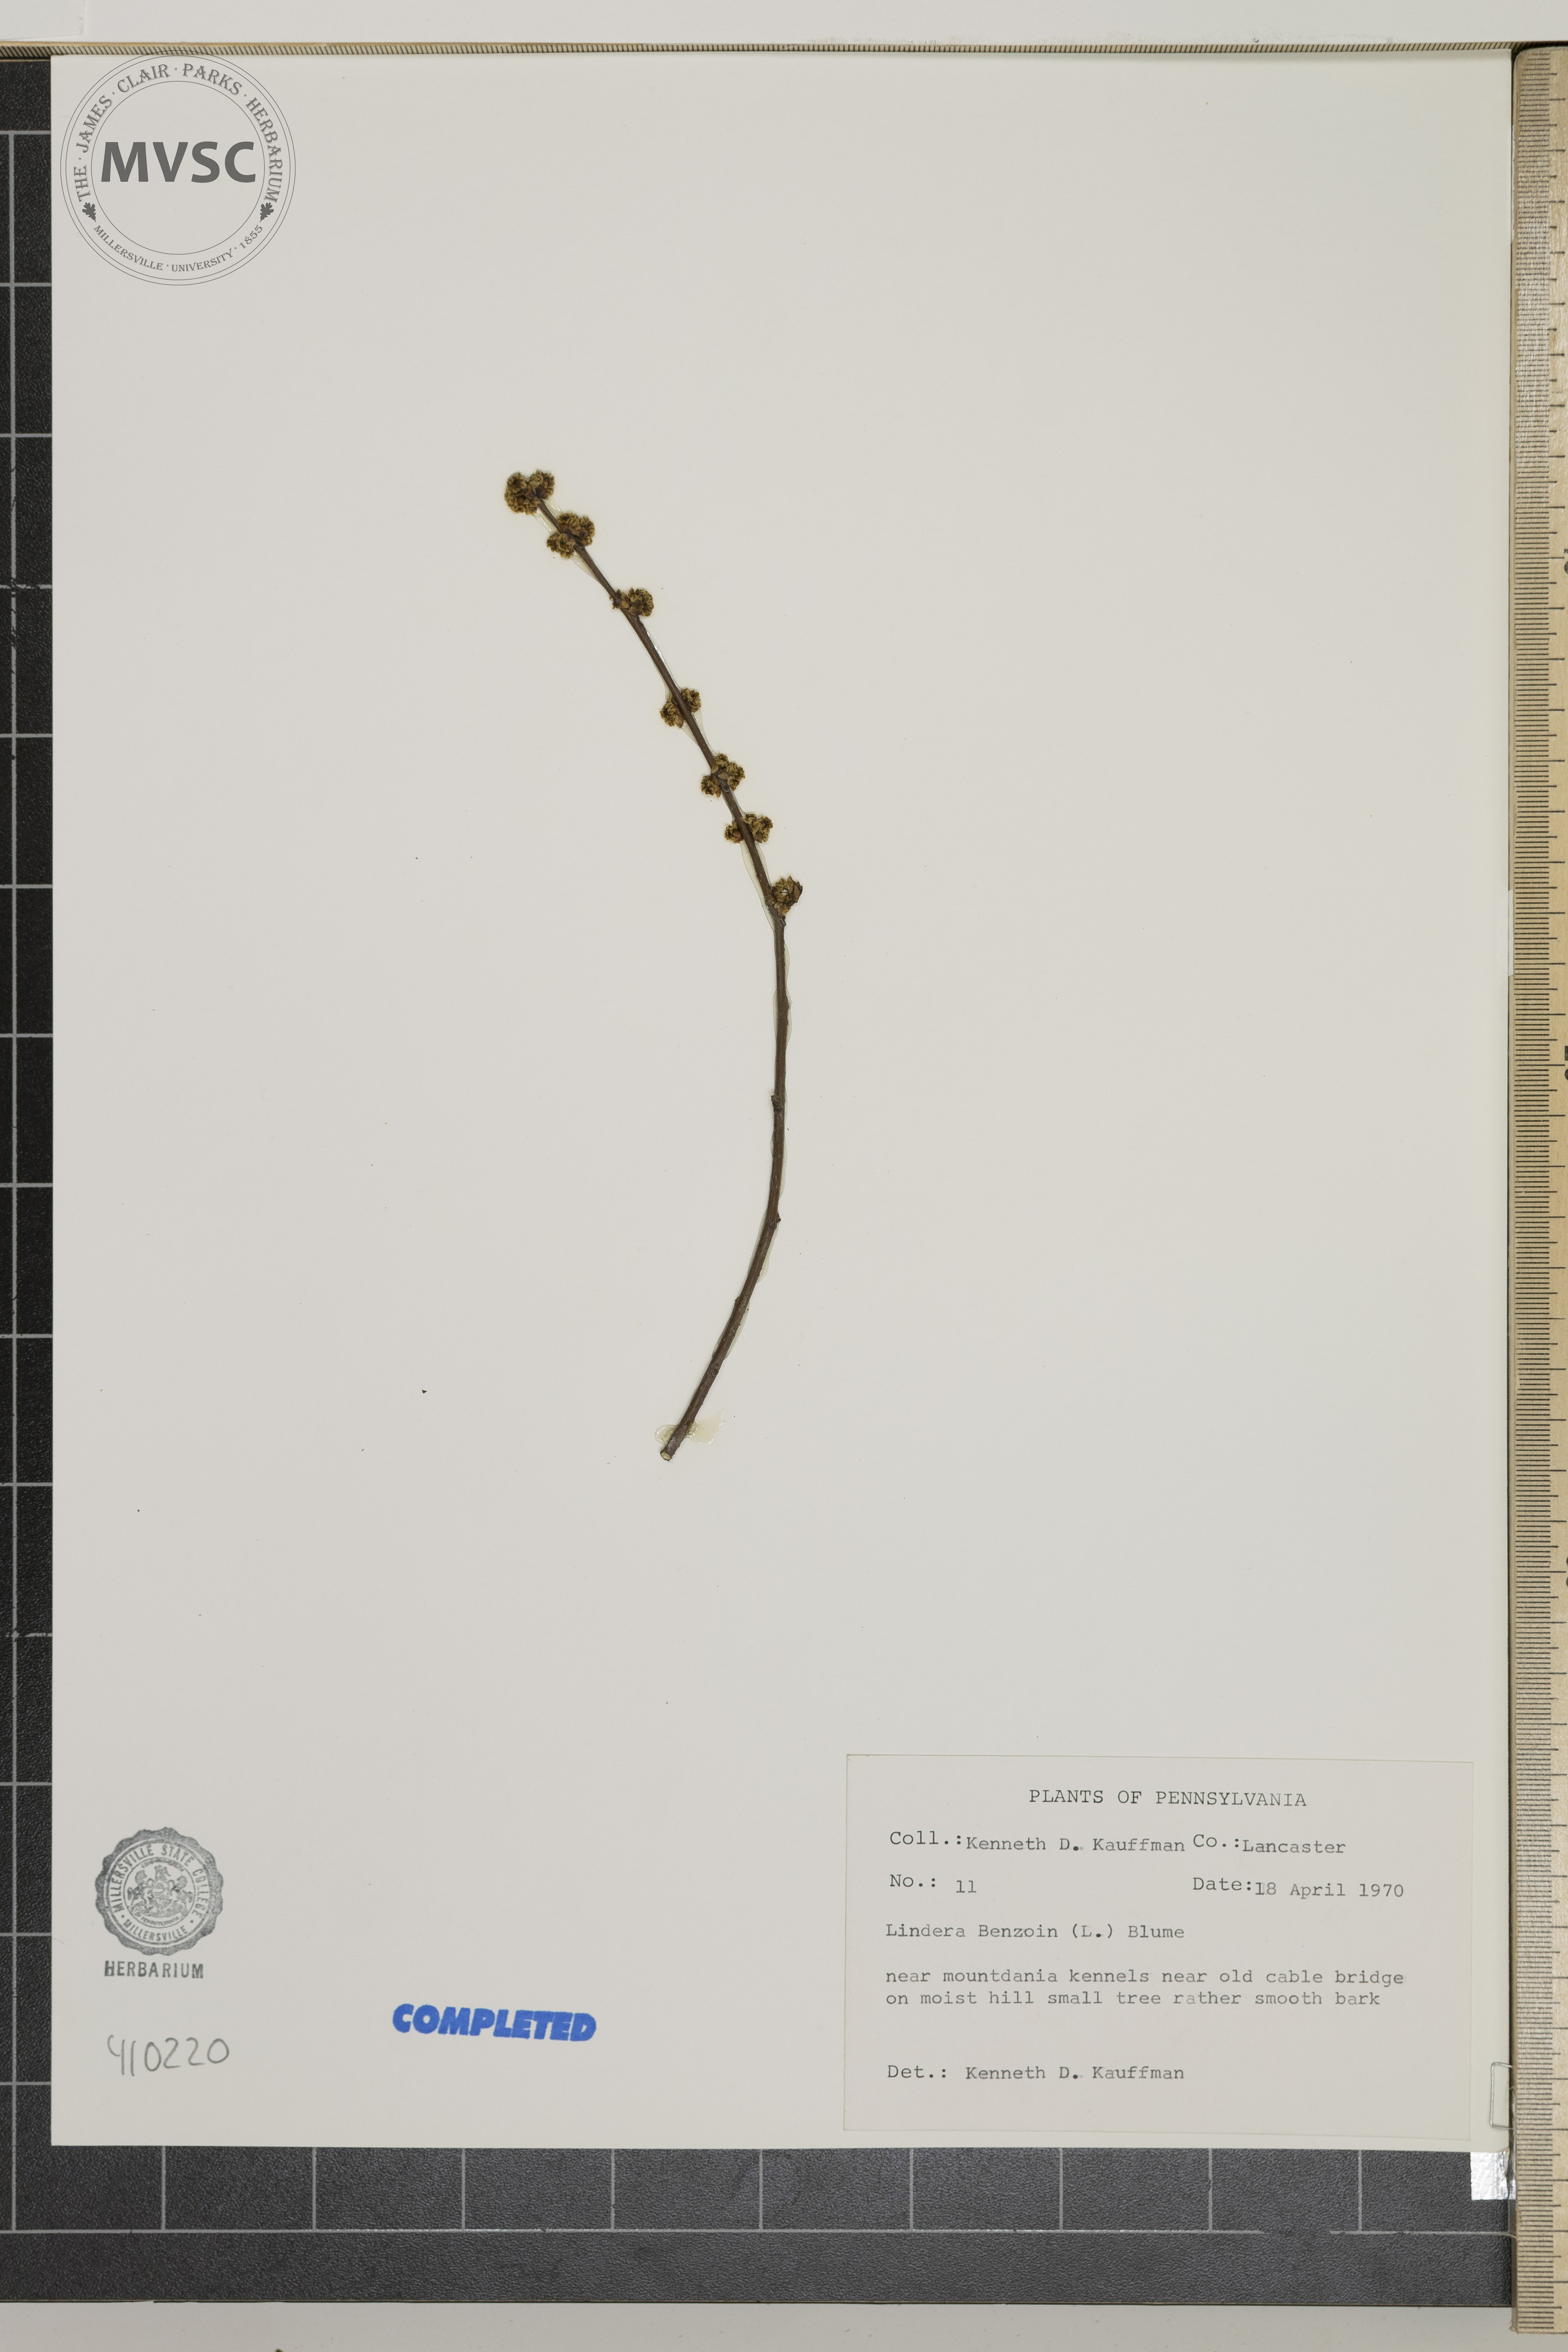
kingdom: Plantae
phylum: Tracheophyta
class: Magnoliopsida
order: Laurales
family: Lauraceae
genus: Lindera
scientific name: Lindera benzoin
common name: Spicebush
